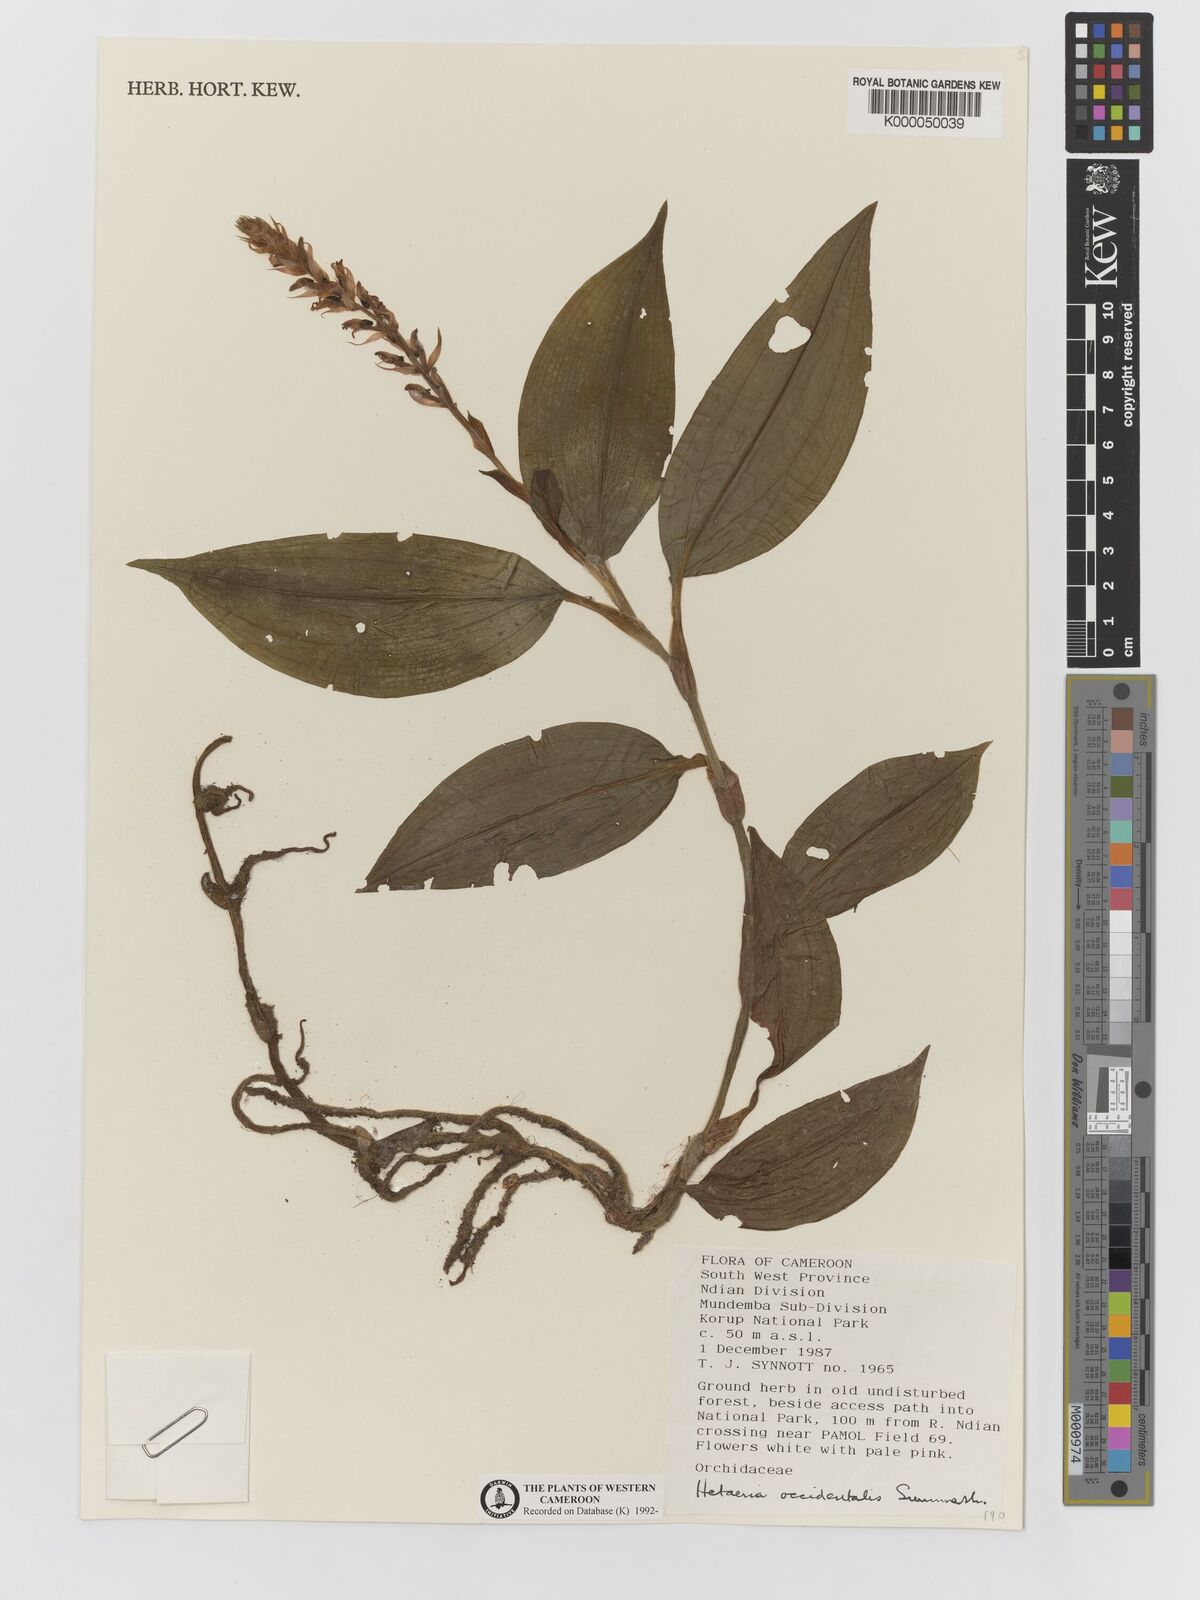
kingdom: Plantae
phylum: Tracheophyta
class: Liliopsida
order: Asparagales
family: Orchidaceae
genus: Hetaeria
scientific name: Hetaeria occidentalis
